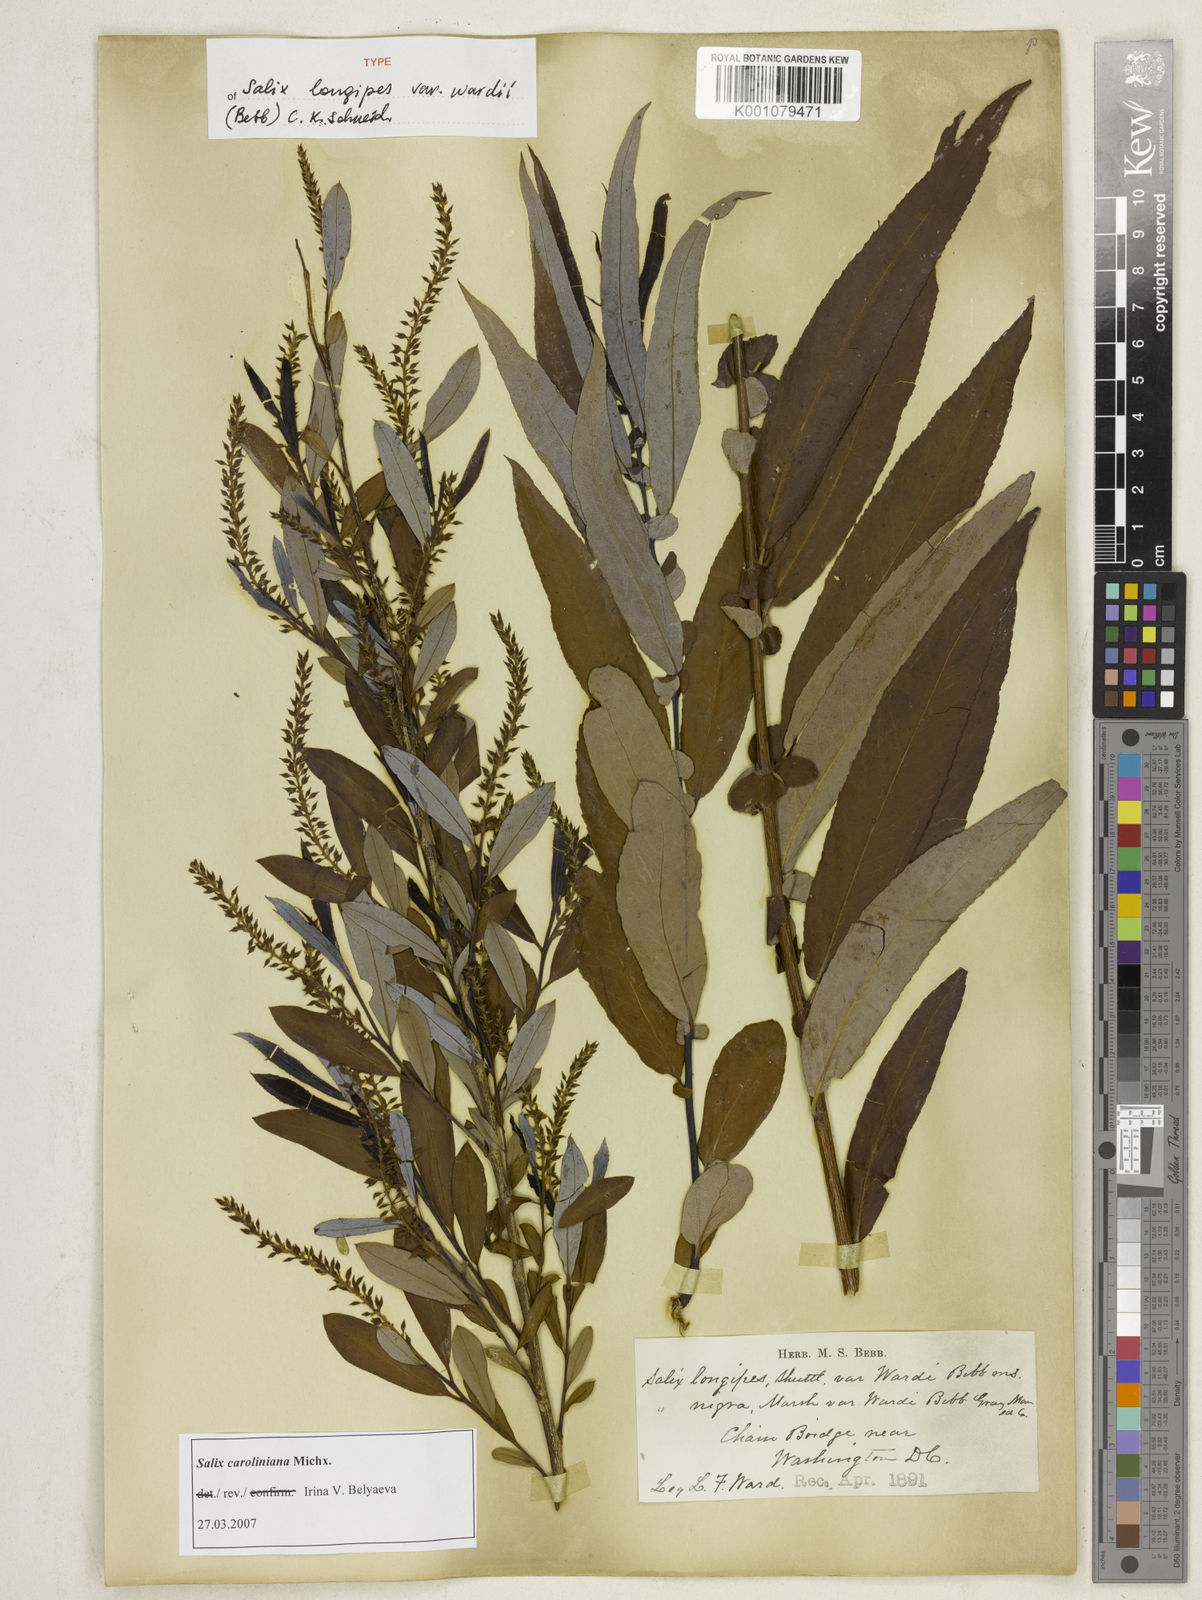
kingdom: Plantae
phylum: Tracheophyta
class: Magnoliopsida
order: Malpighiales
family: Salicaceae
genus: Salix
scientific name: Salix caroliniana
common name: Carolina willow
